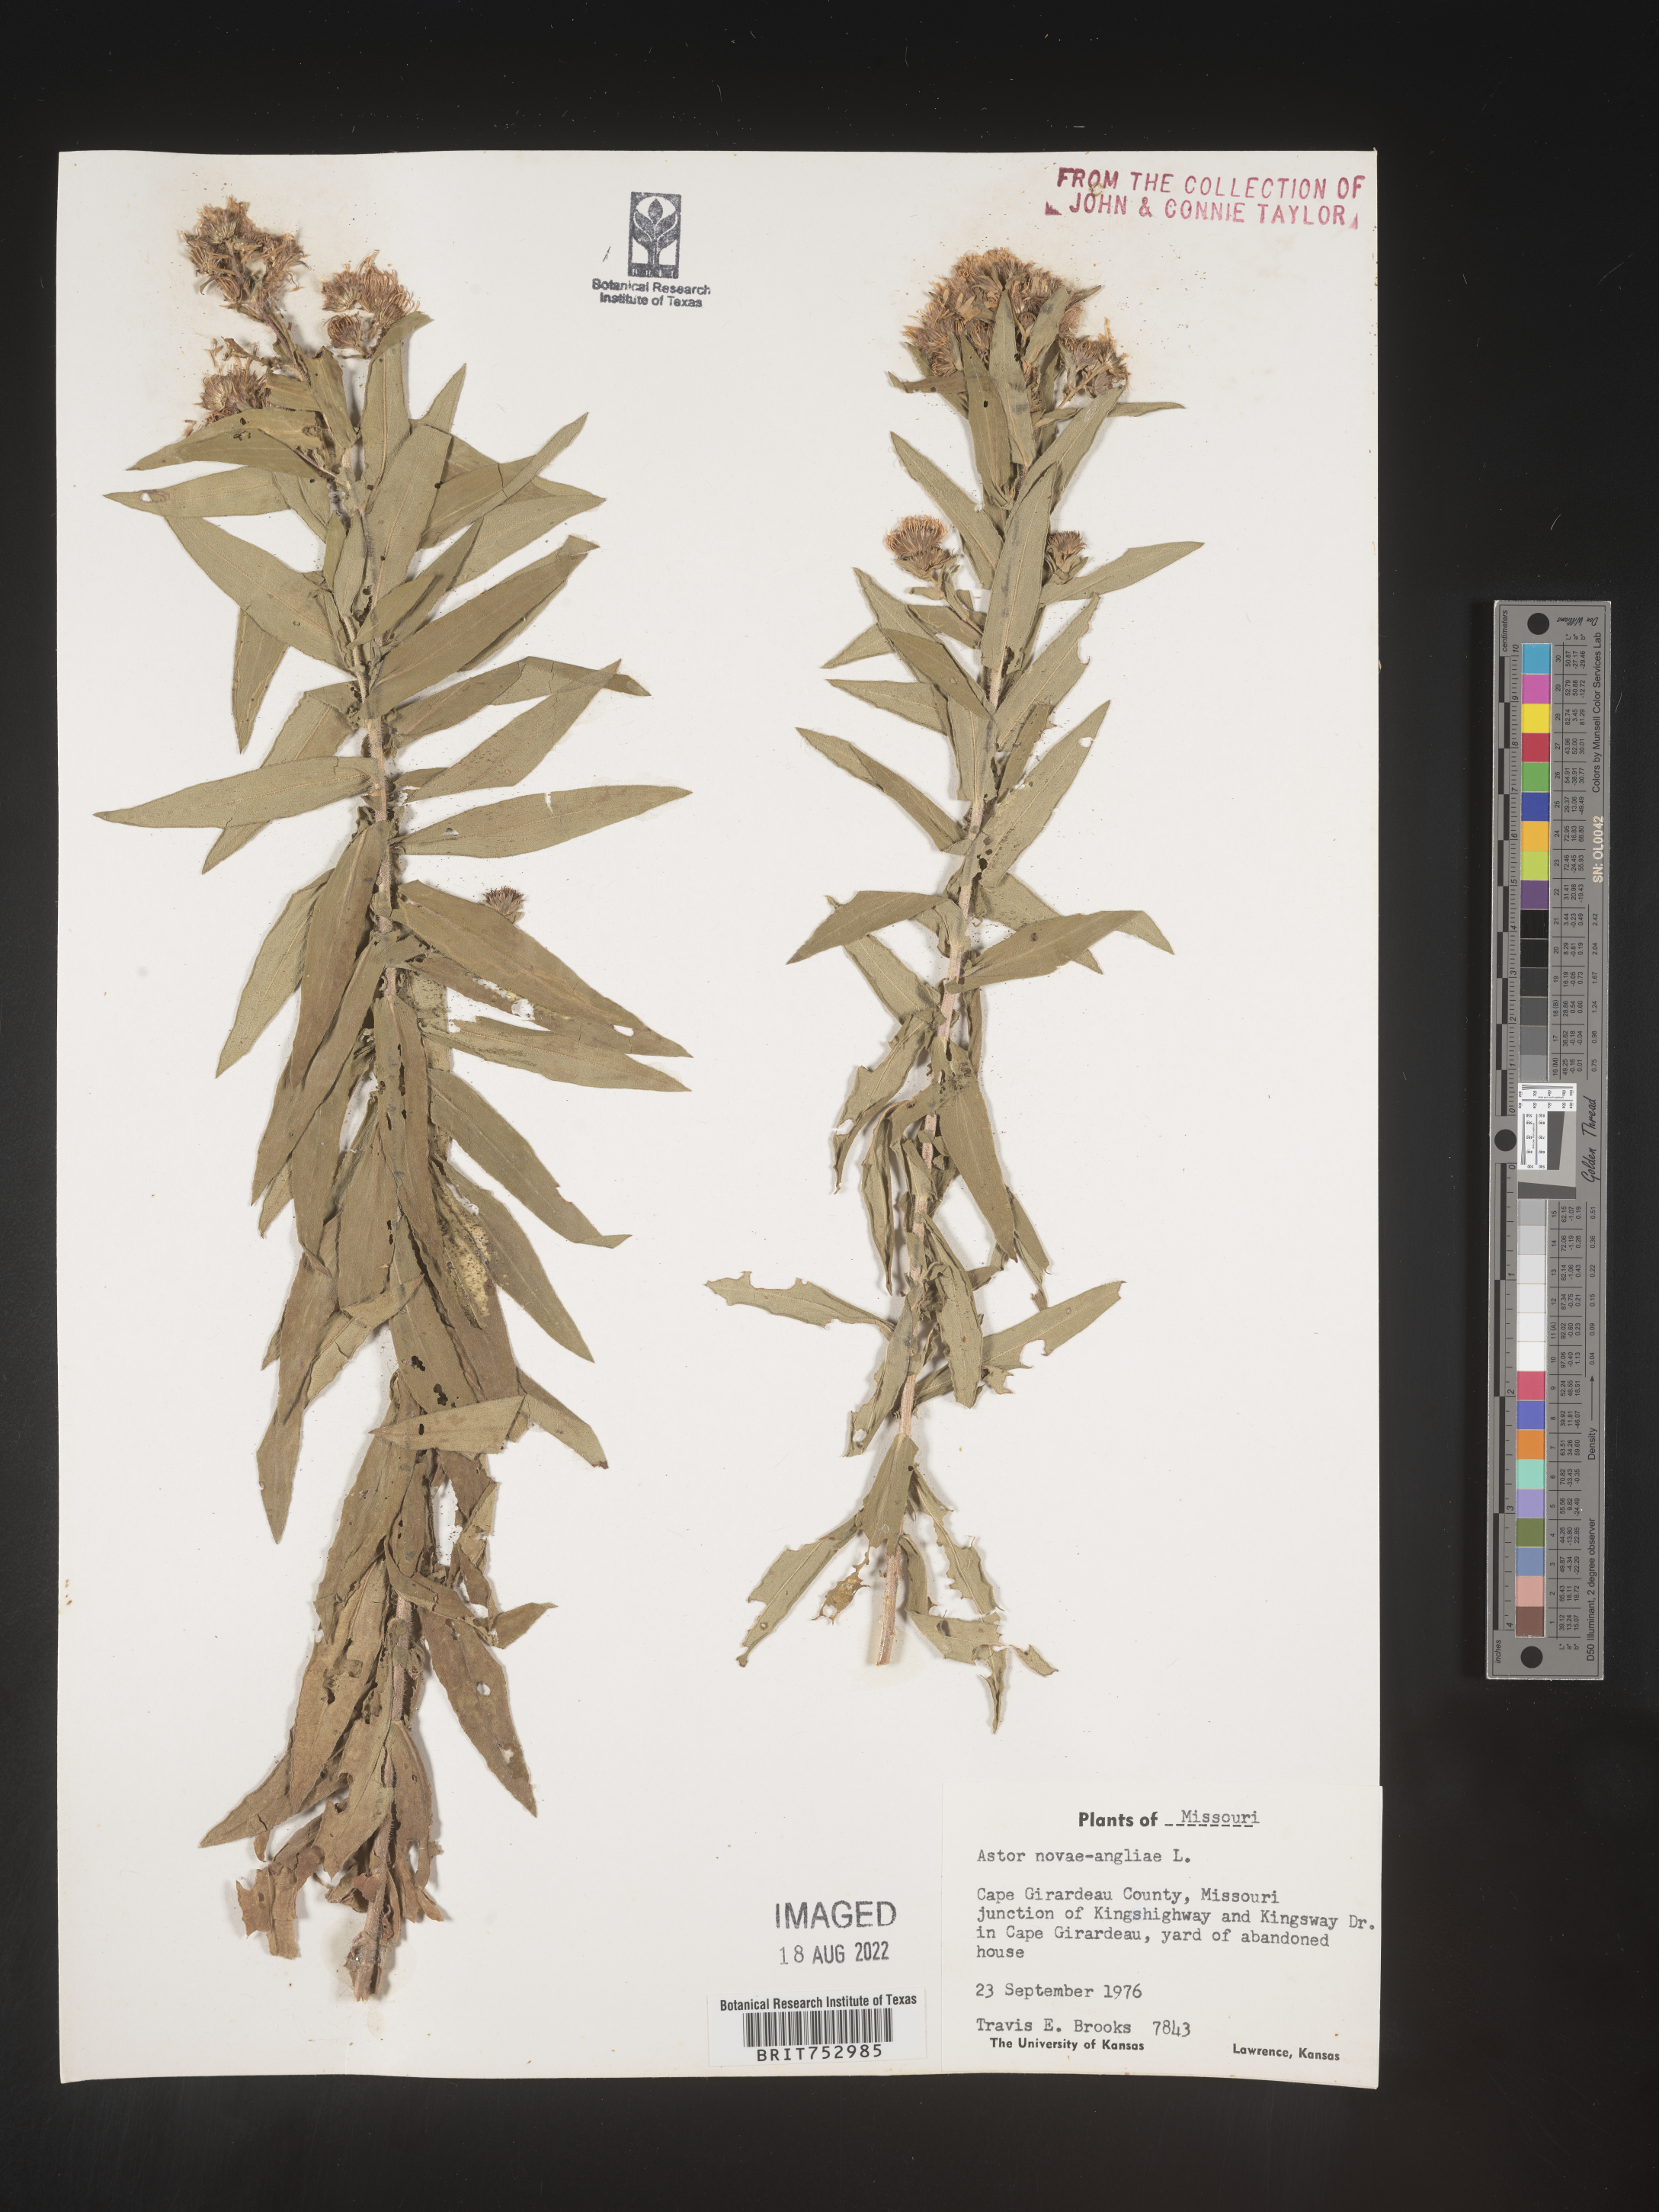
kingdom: Plantae
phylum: Tracheophyta
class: Magnoliopsida
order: Asterales
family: Asteraceae
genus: Symphyotrichum
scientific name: Symphyotrichum novae-angliae
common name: Michaelmas daisy
